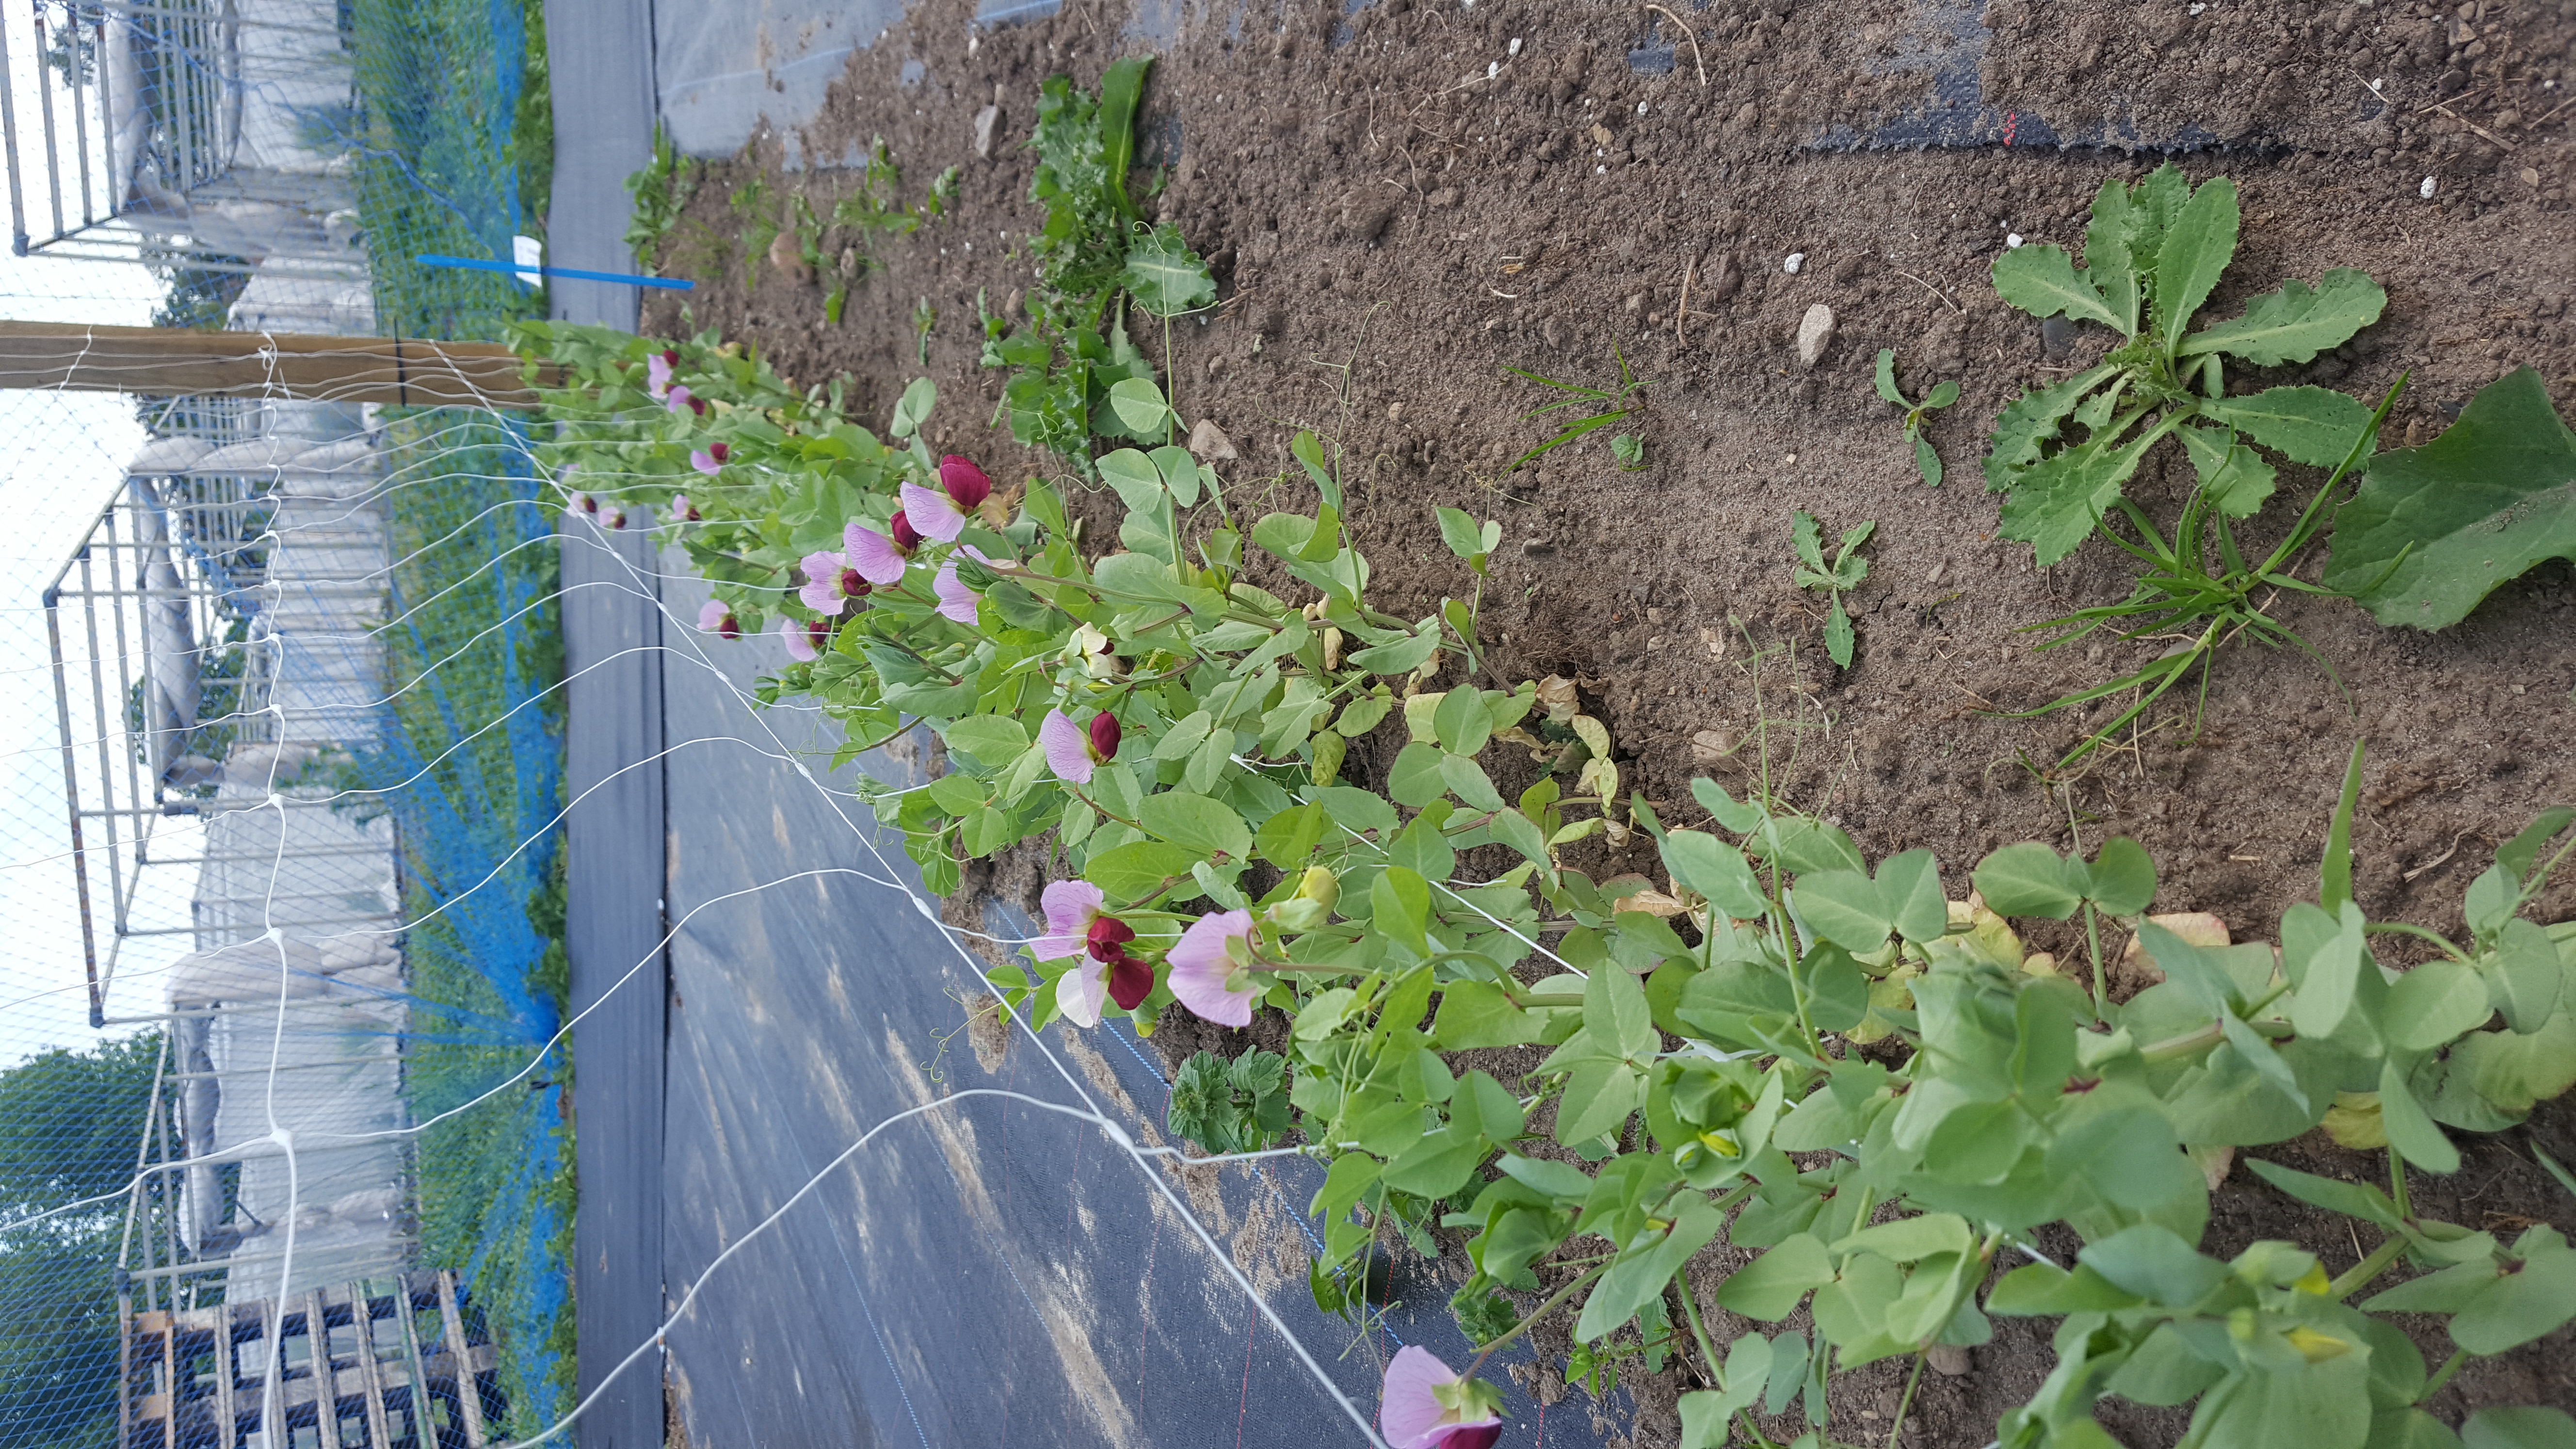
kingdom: Plantae
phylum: Tracheophyta
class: Magnoliopsida
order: Fabales
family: Fabaceae
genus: Lathyrus
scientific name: Lathyrus oleraceus
